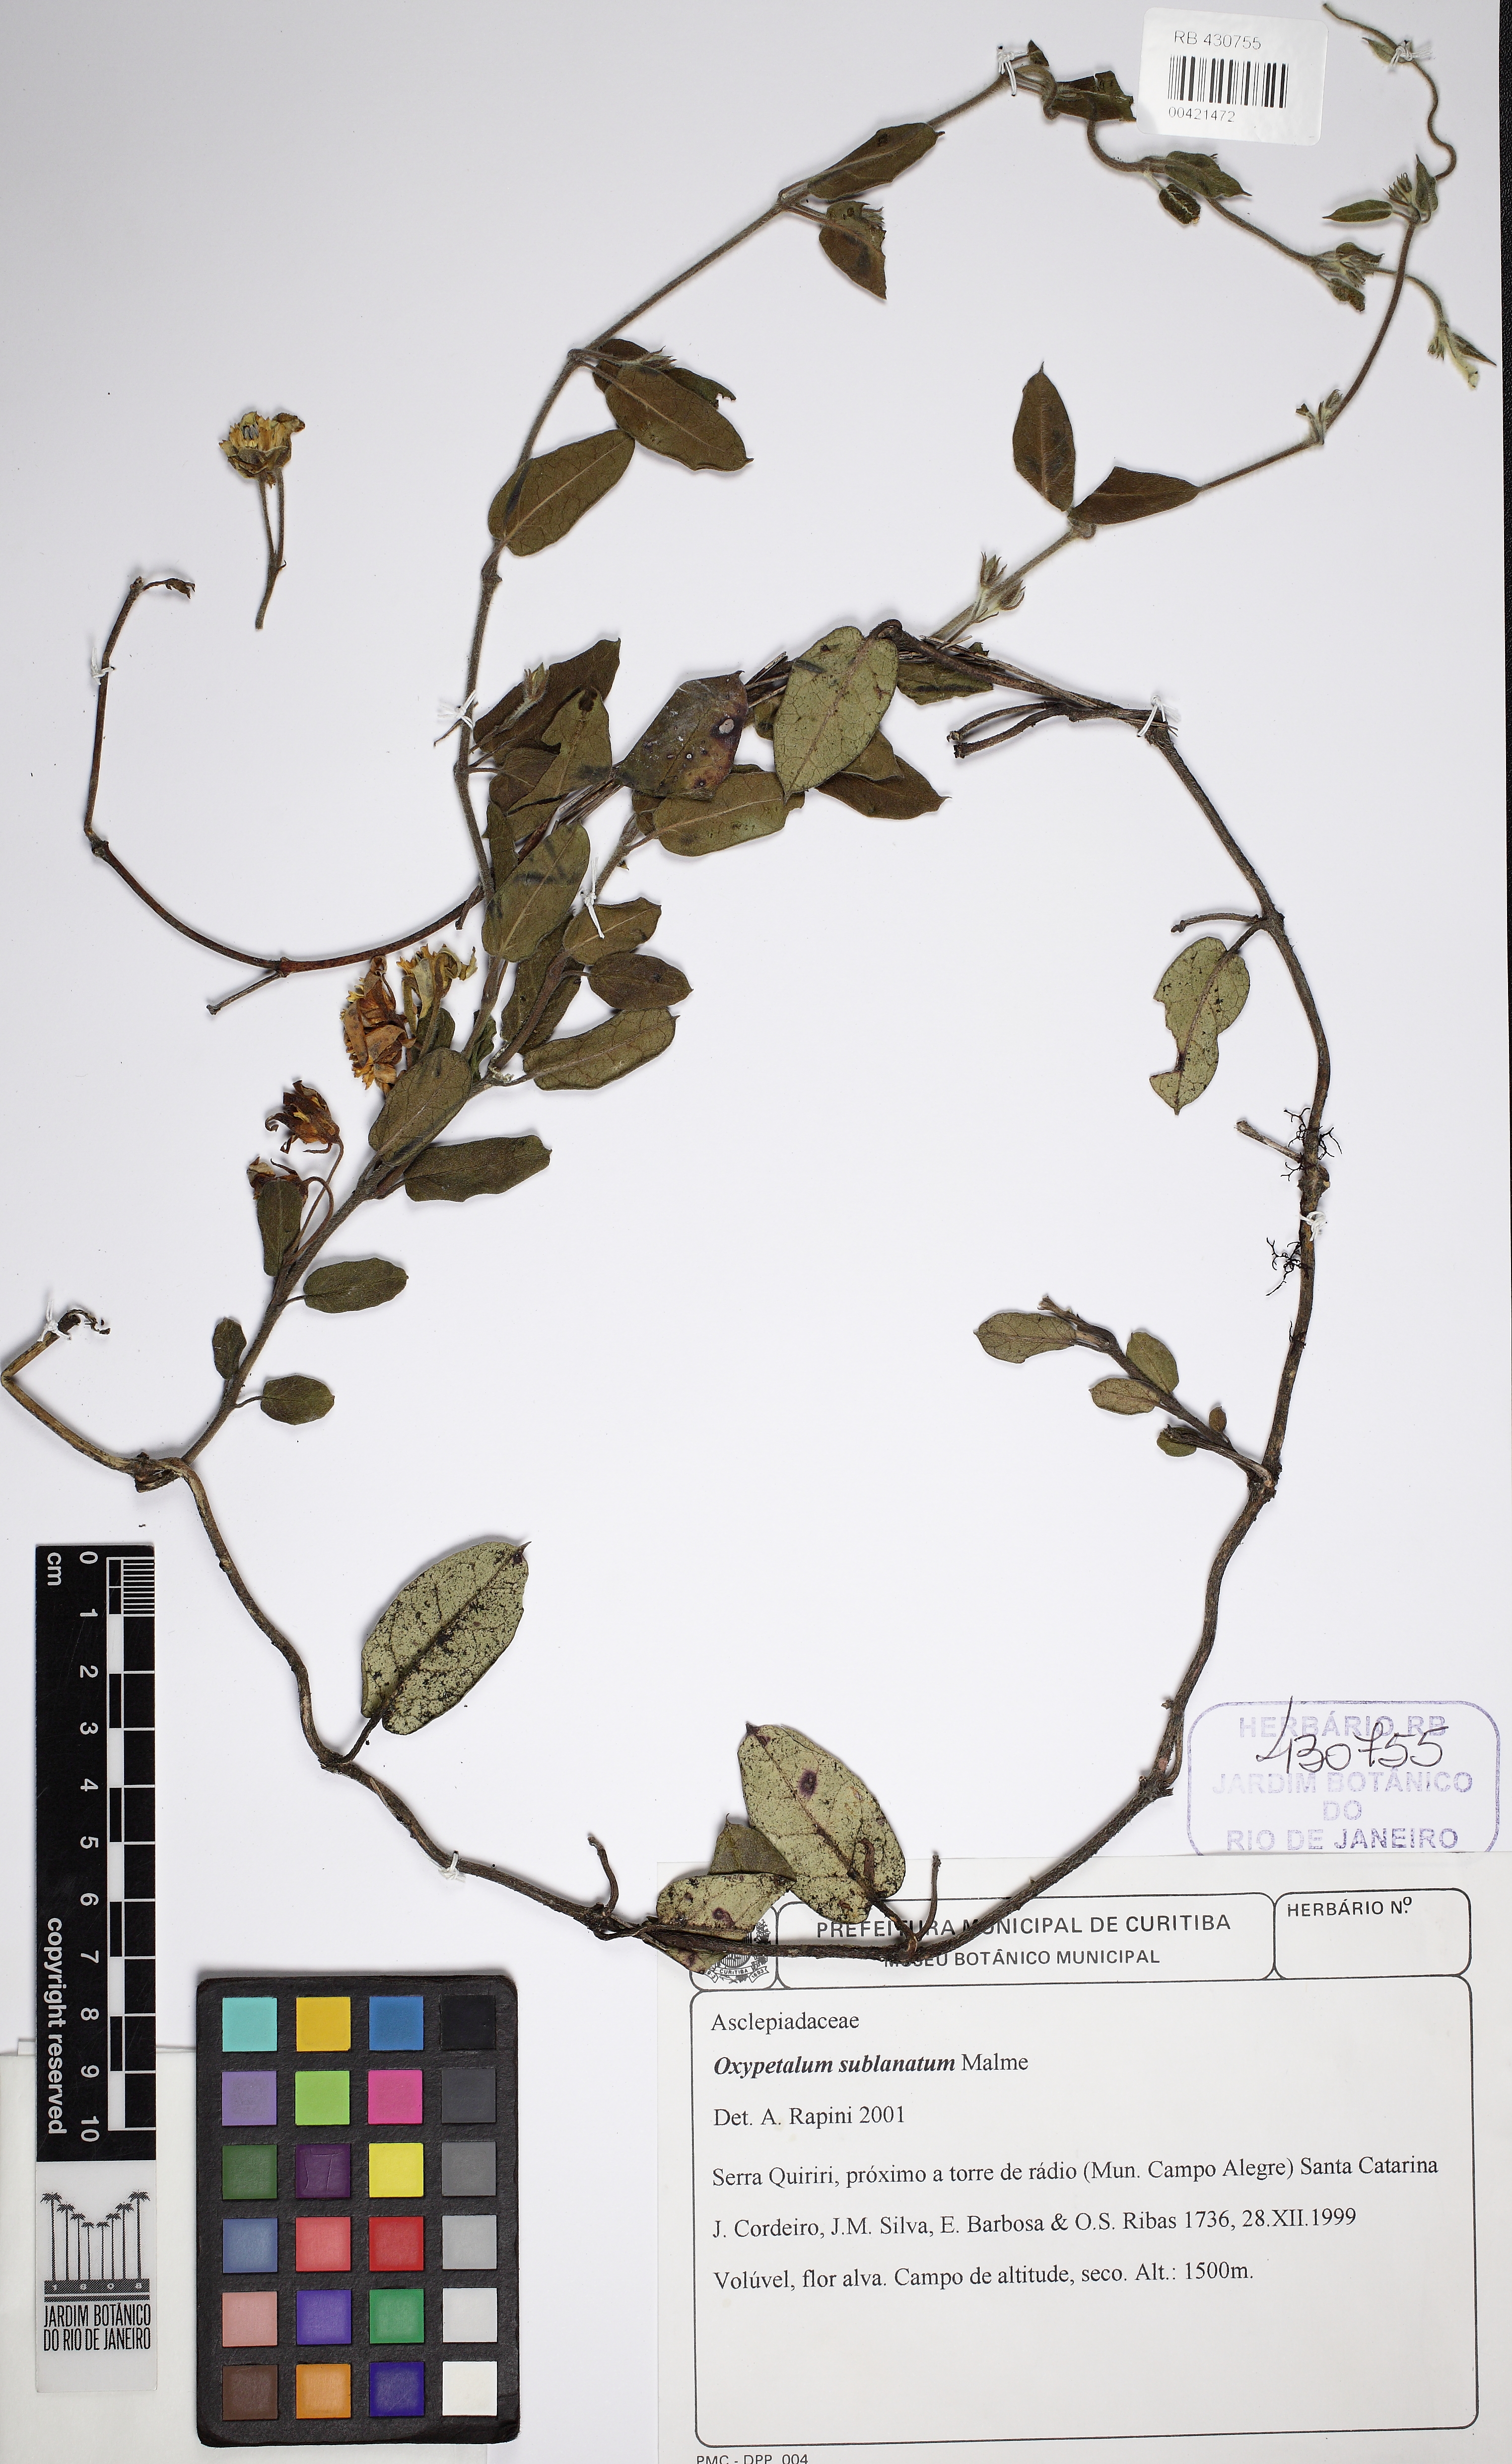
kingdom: Plantae
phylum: Tracheophyta
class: Magnoliopsida
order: Gentianales
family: Apocynaceae
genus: Oxypetalum
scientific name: Oxypetalum sublanatum
